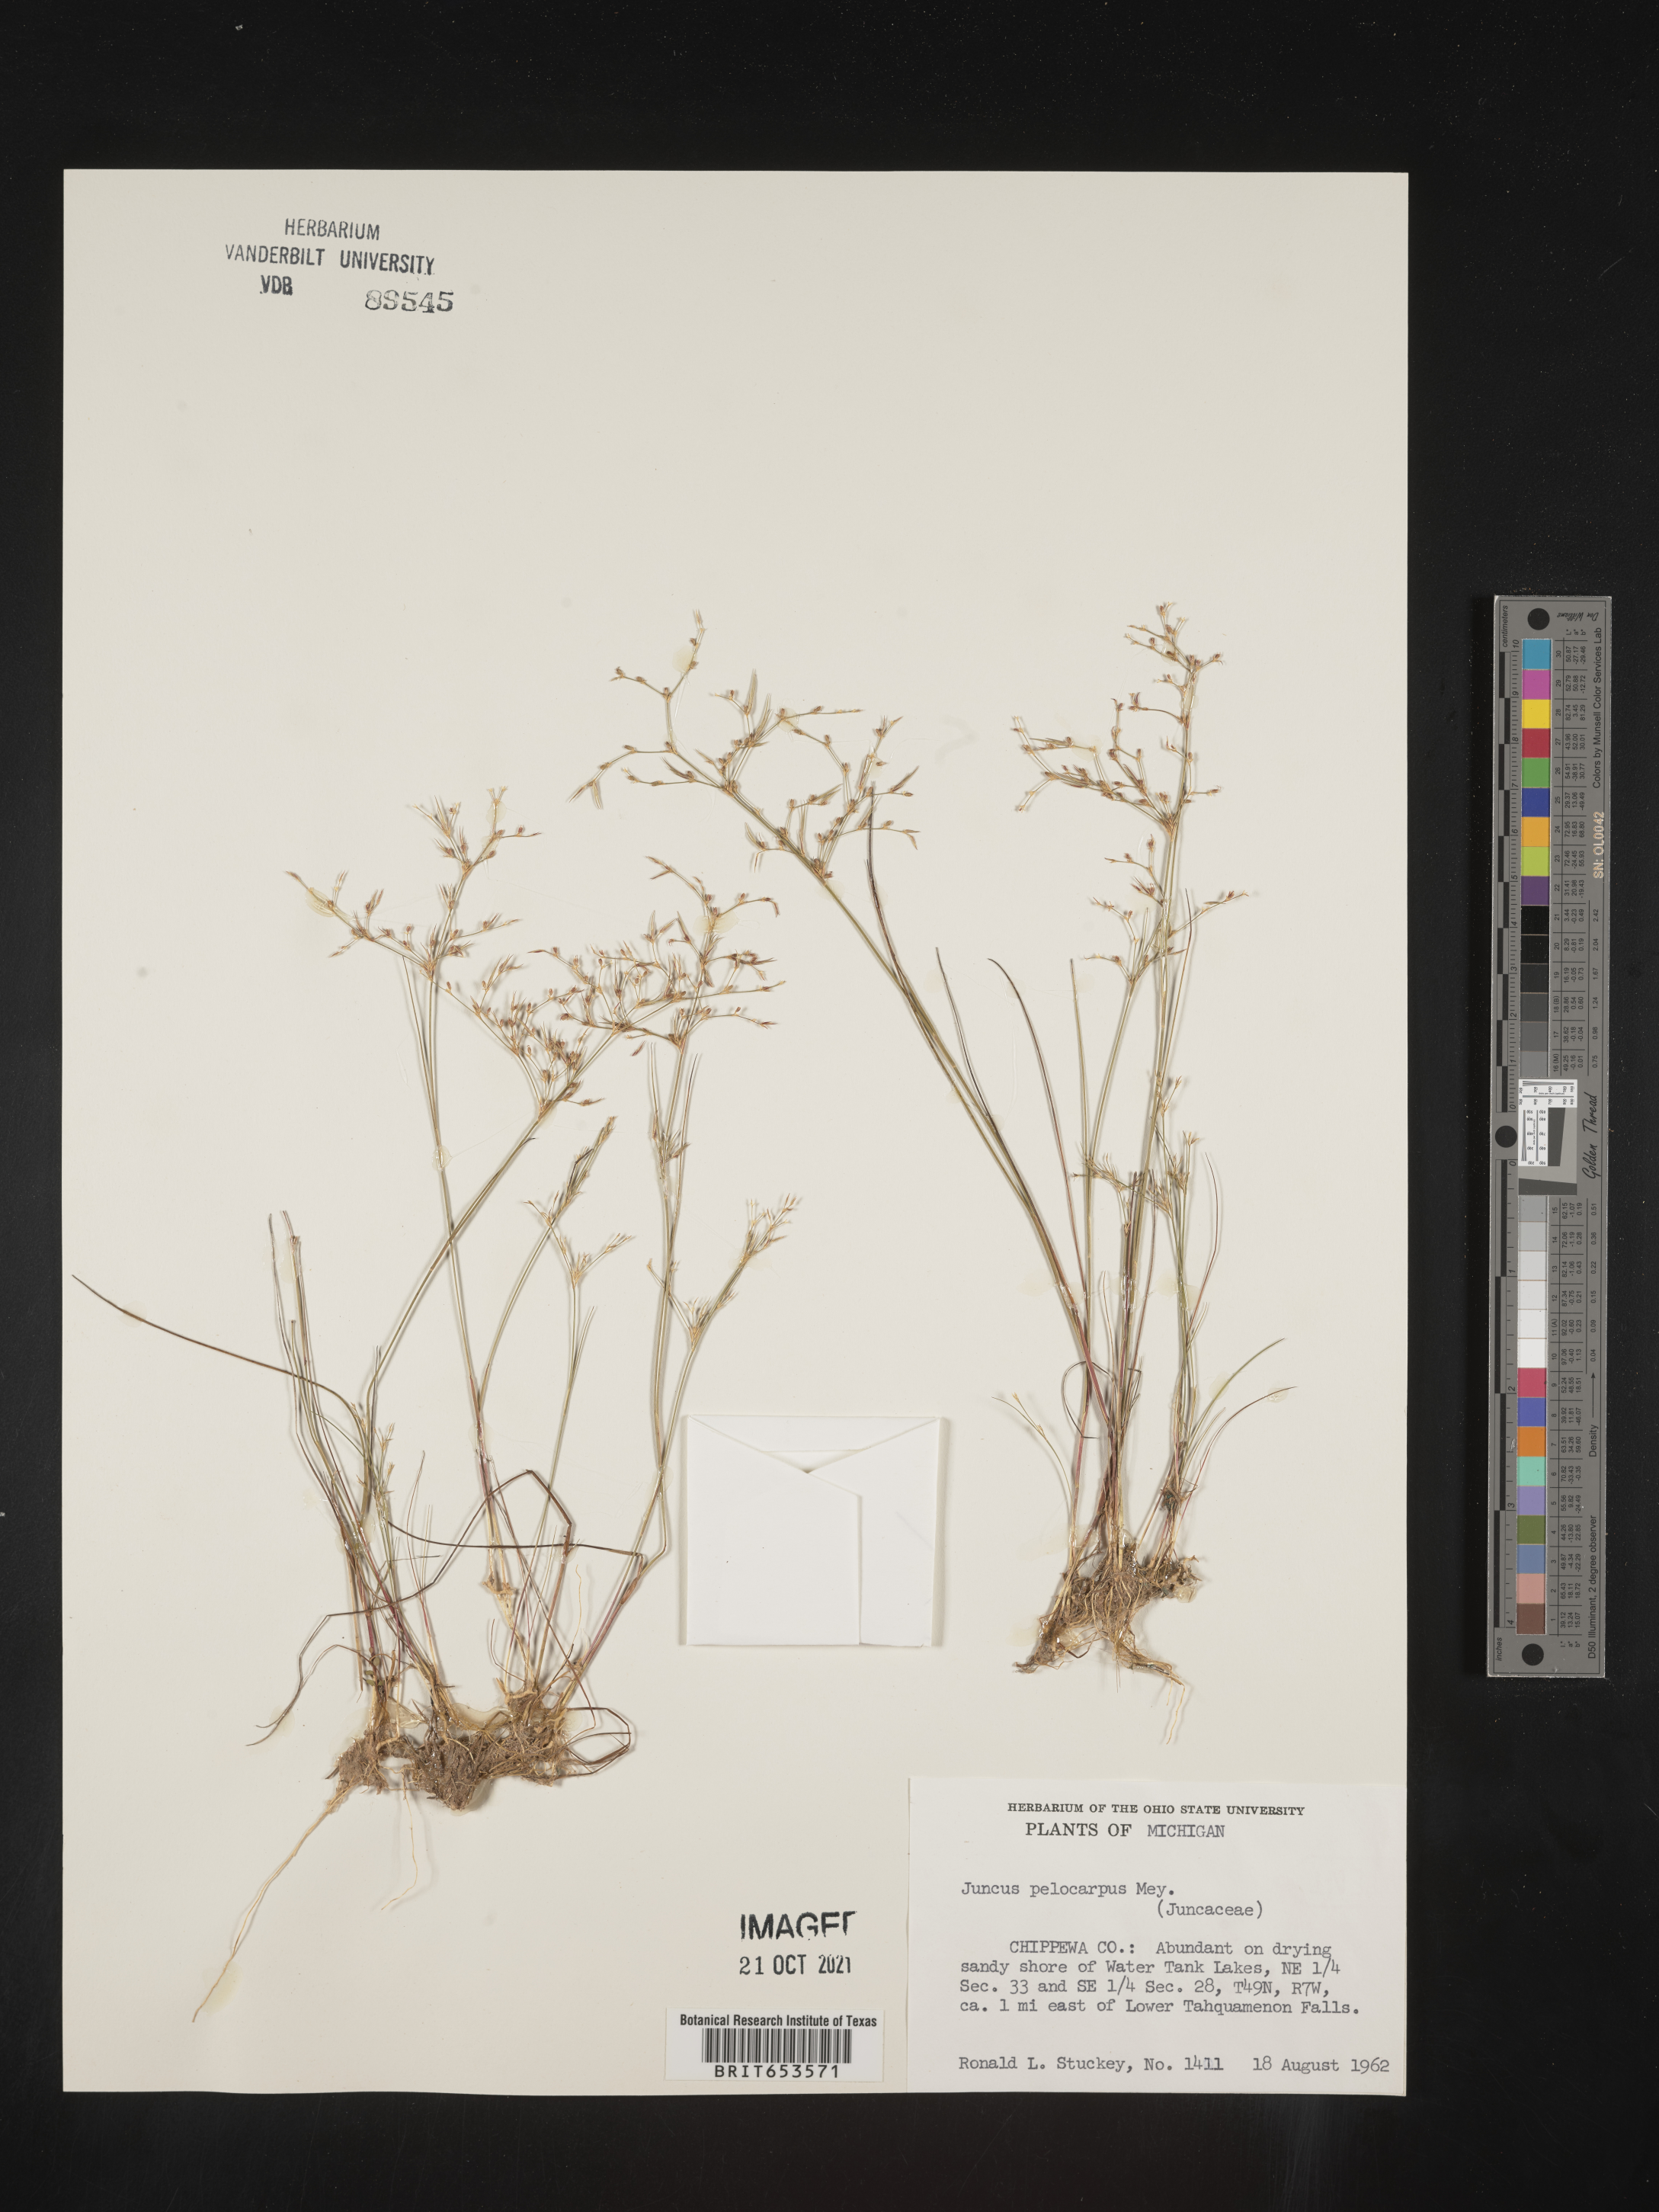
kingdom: Plantae
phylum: Tracheophyta
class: Liliopsida
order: Poales
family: Juncaceae
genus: Juncus
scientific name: Juncus pelocarpus
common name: Brown-fruited rush
